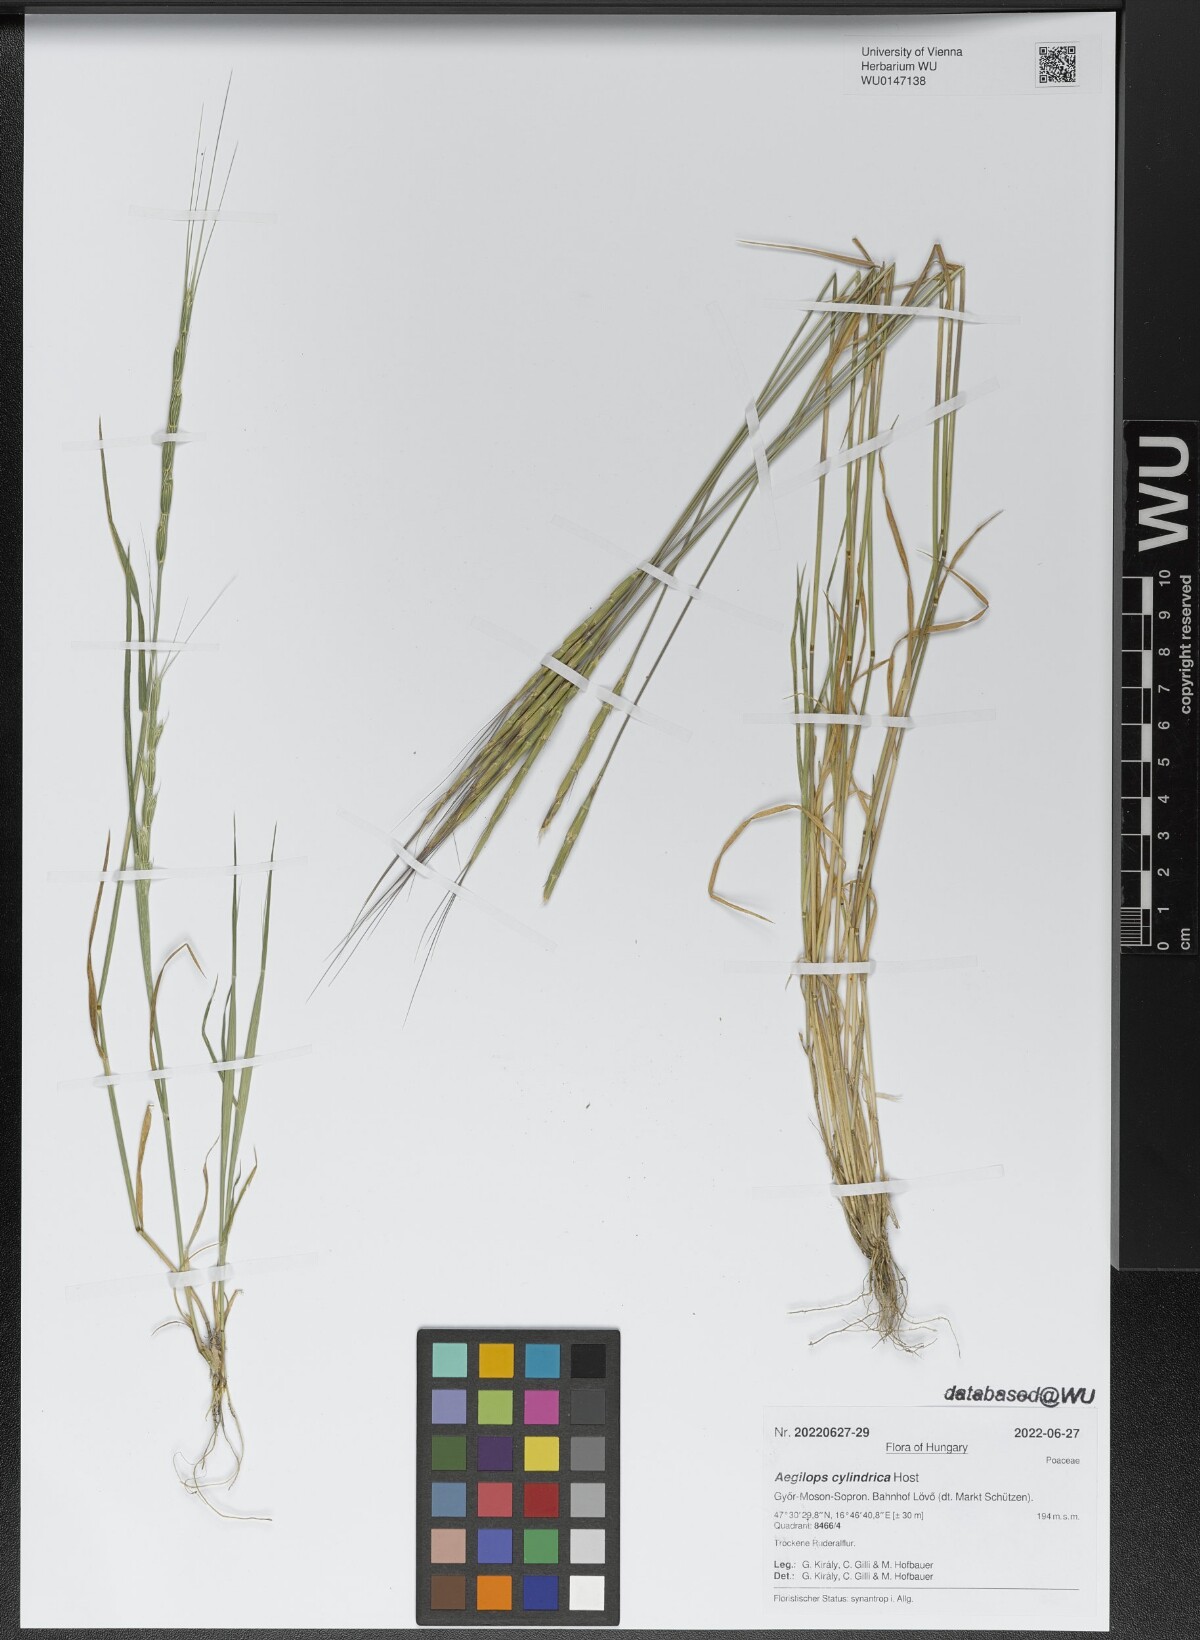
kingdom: Plantae
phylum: Tracheophyta
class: Liliopsida
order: Poales
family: Poaceae
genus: Aegilops
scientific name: Aegilops cylindrica
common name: Jointed goatgrass
